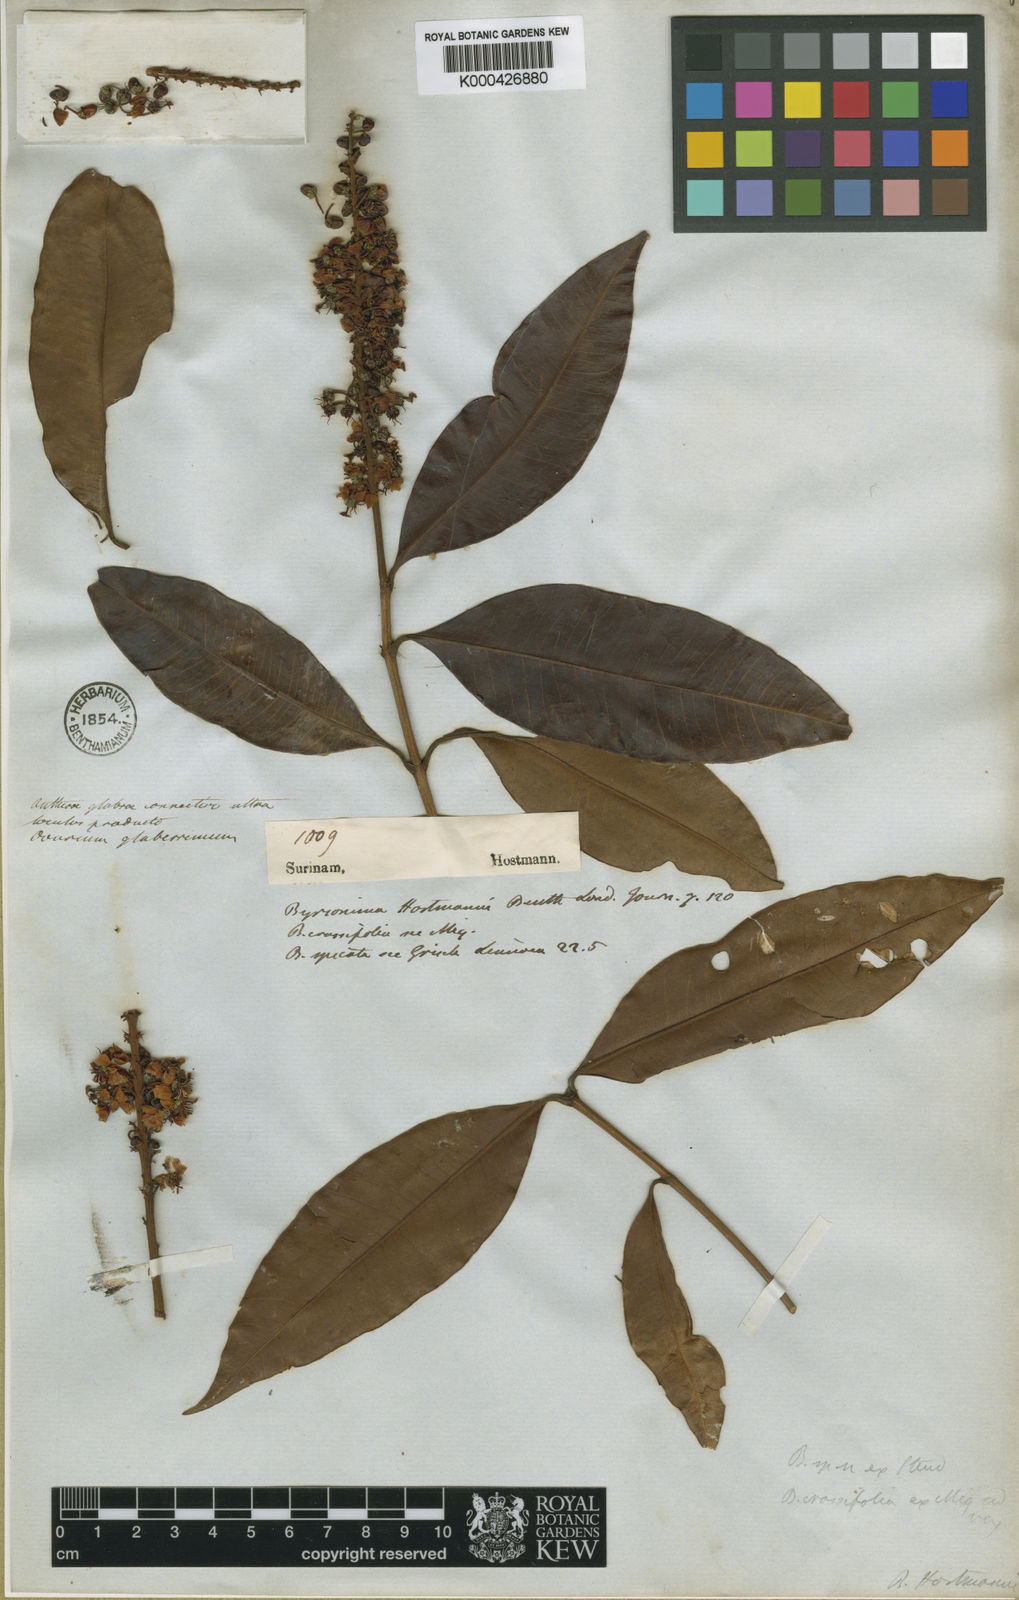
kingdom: Plantae
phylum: Tracheophyta
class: Magnoliopsida
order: Malpighiales
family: Malpighiaceae
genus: Byrsonima
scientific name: Byrsonima
